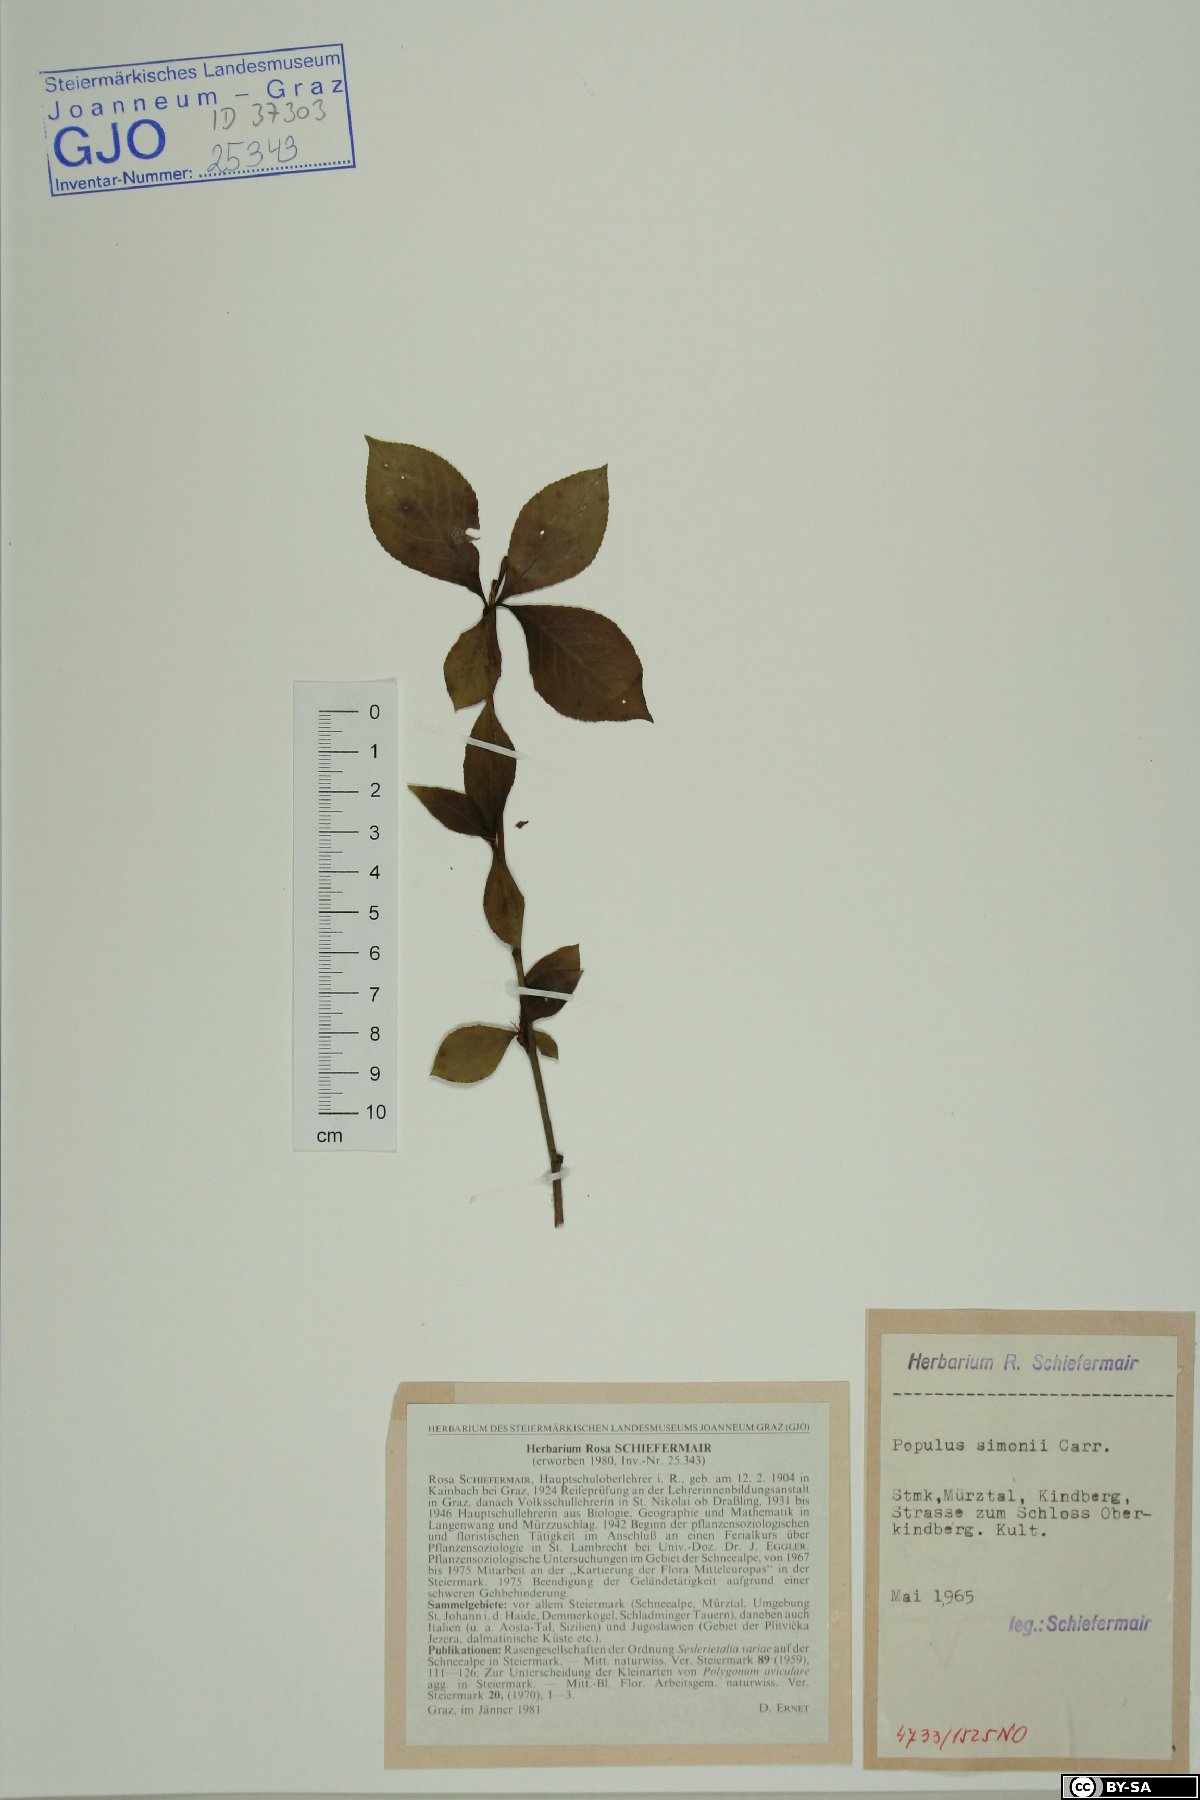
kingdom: Plantae
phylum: Tracheophyta
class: Magnoliopsida
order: Malpighiales
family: Salicaceae
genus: Populus
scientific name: Populus simonii
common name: Simon poplar
